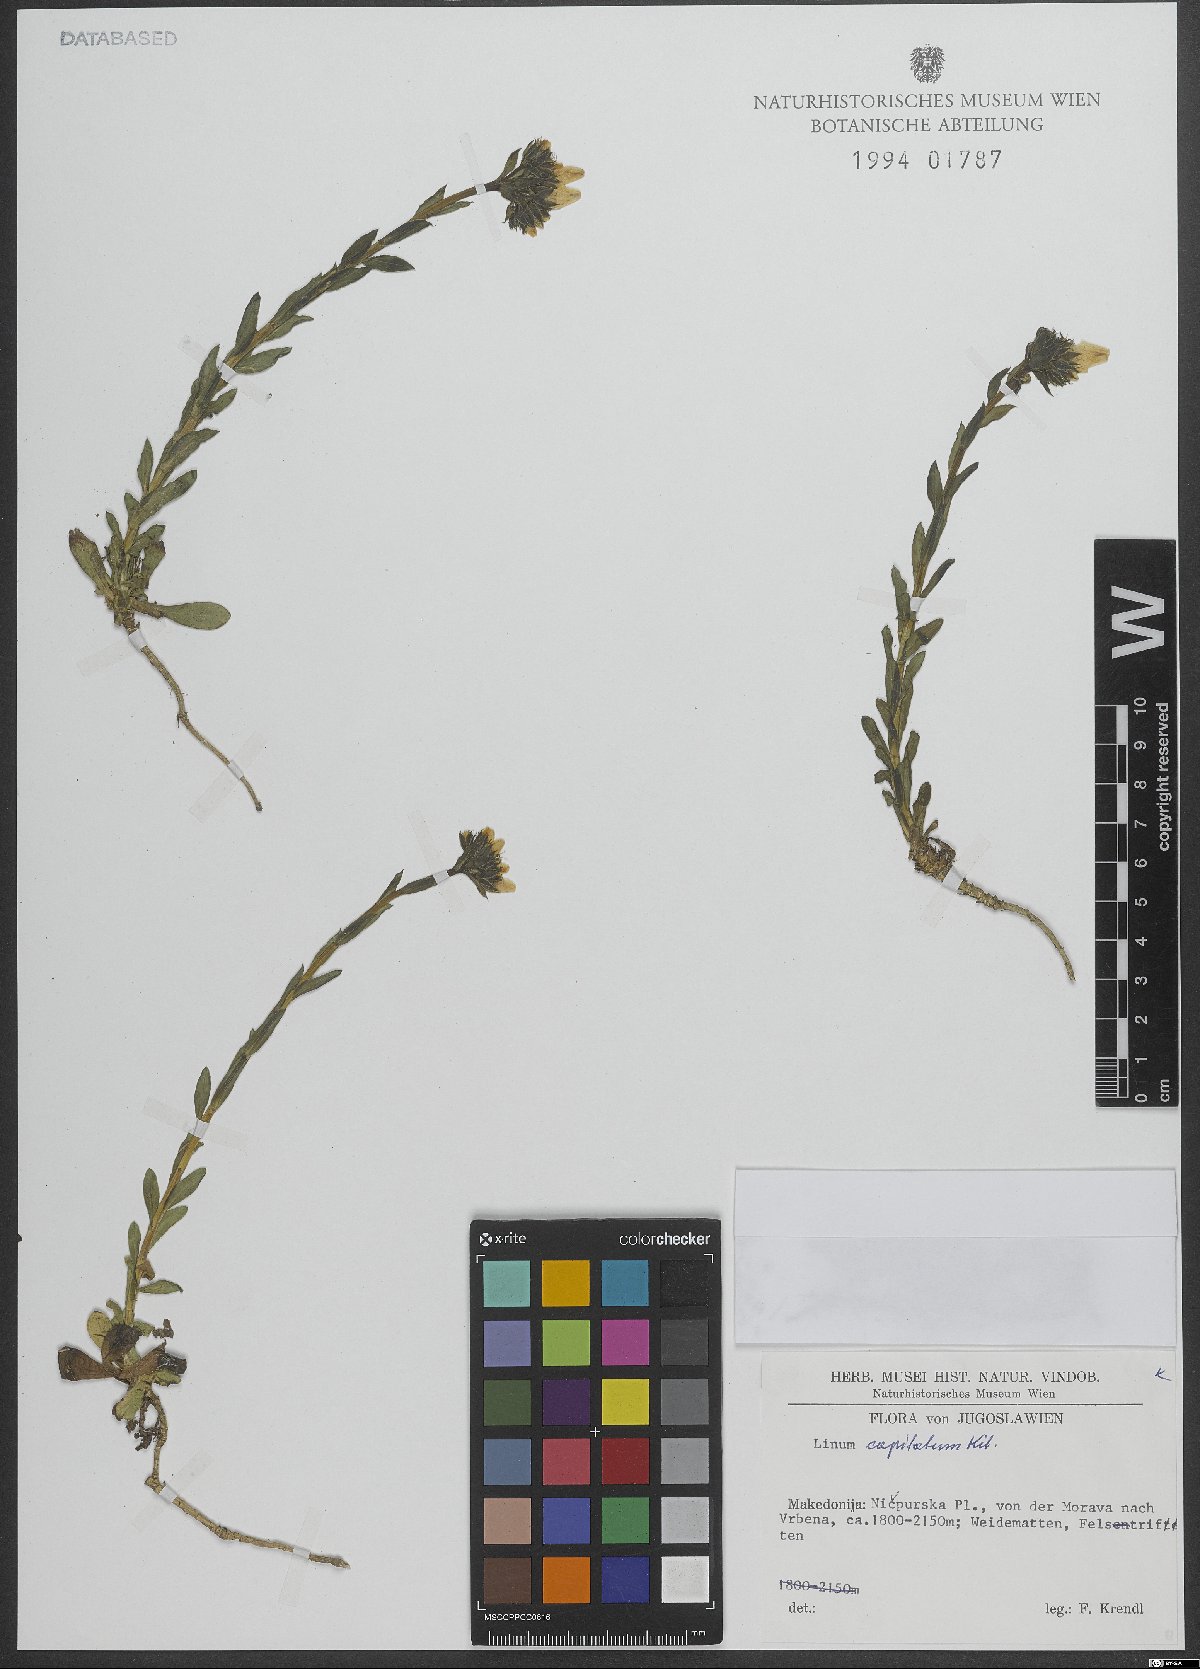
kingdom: Plantae
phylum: Tracheophyta
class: Magnoliopsida
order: Malpighiales
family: Linaceae
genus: Linum
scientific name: Linum capitatum
